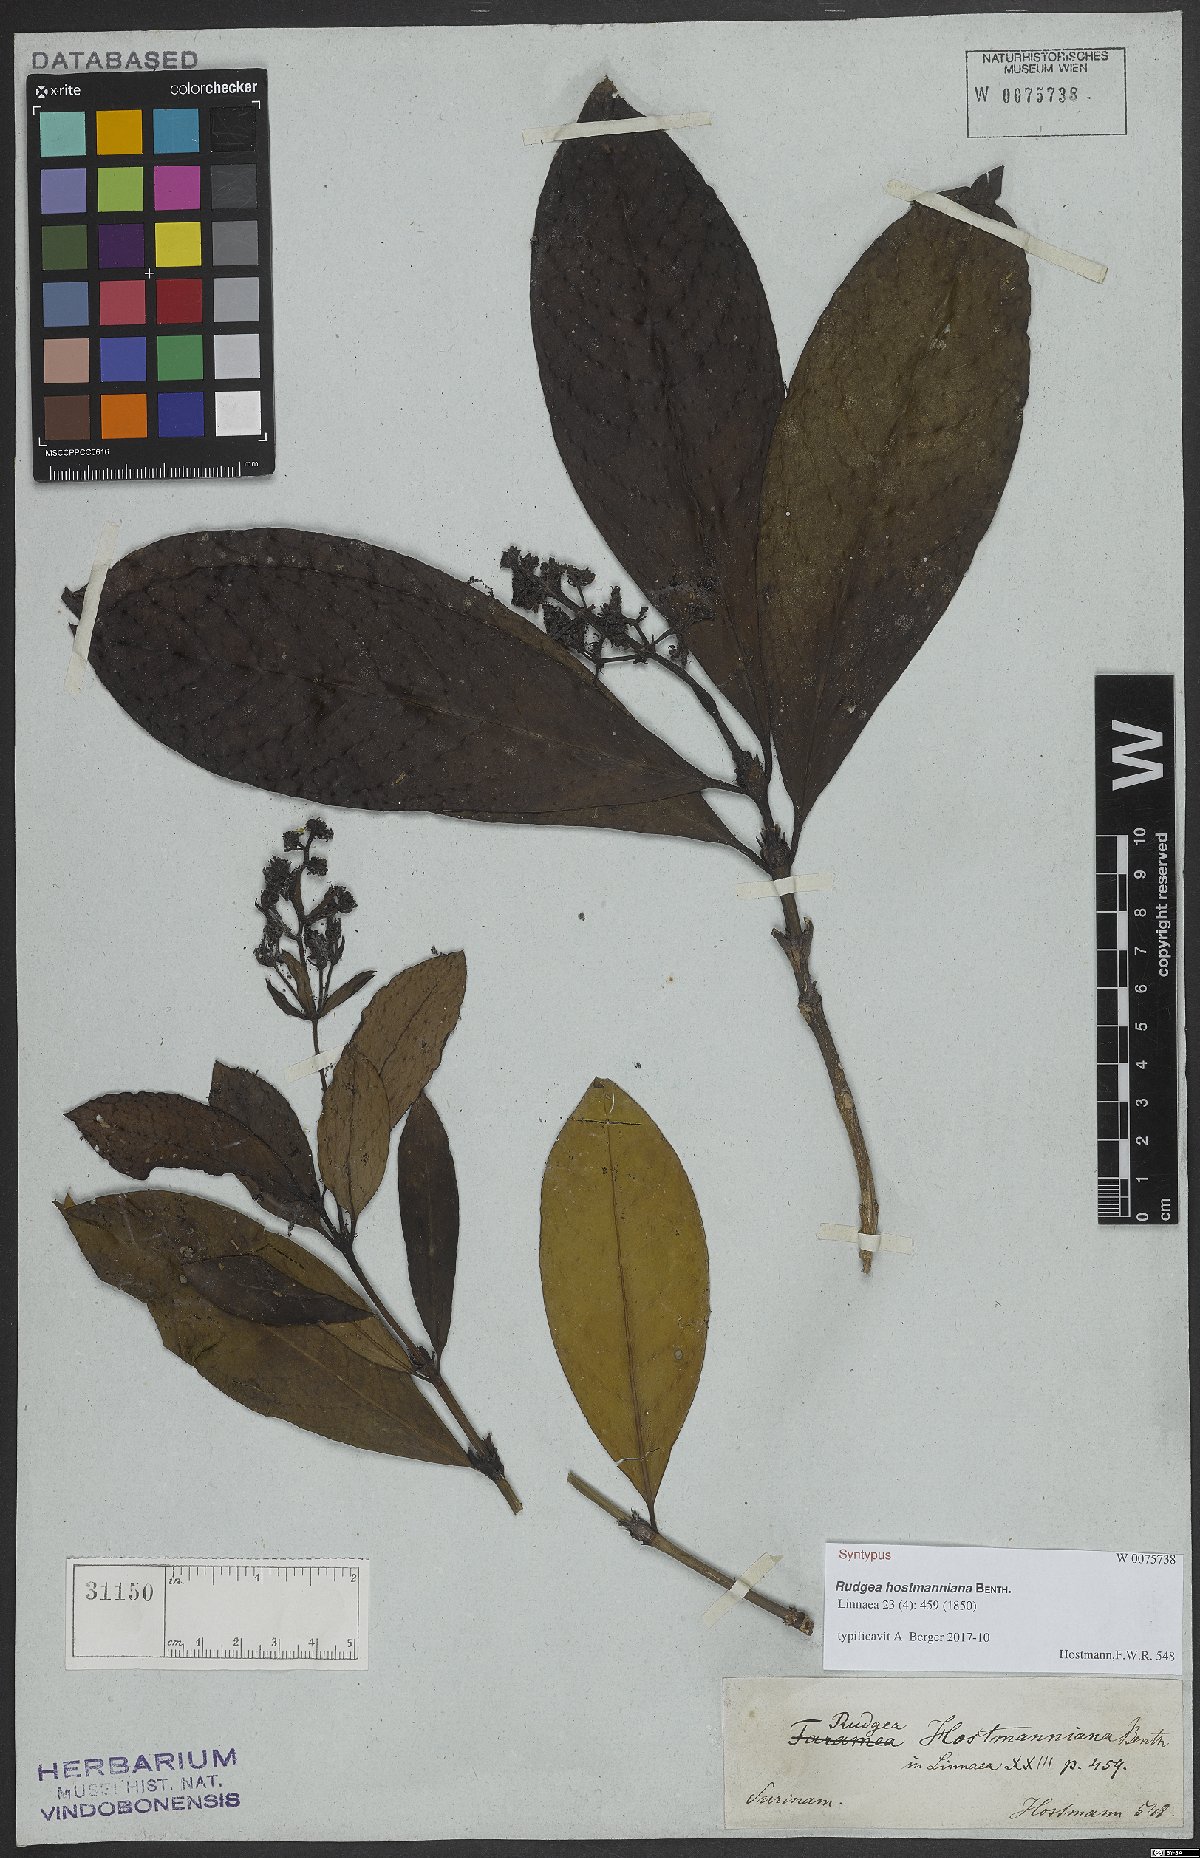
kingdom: Plantae
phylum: Tracheophyta
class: Magnoliopsida
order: Gentianales
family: Rubiaceae
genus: Rudgea
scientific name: Rudgea hostmanniana
